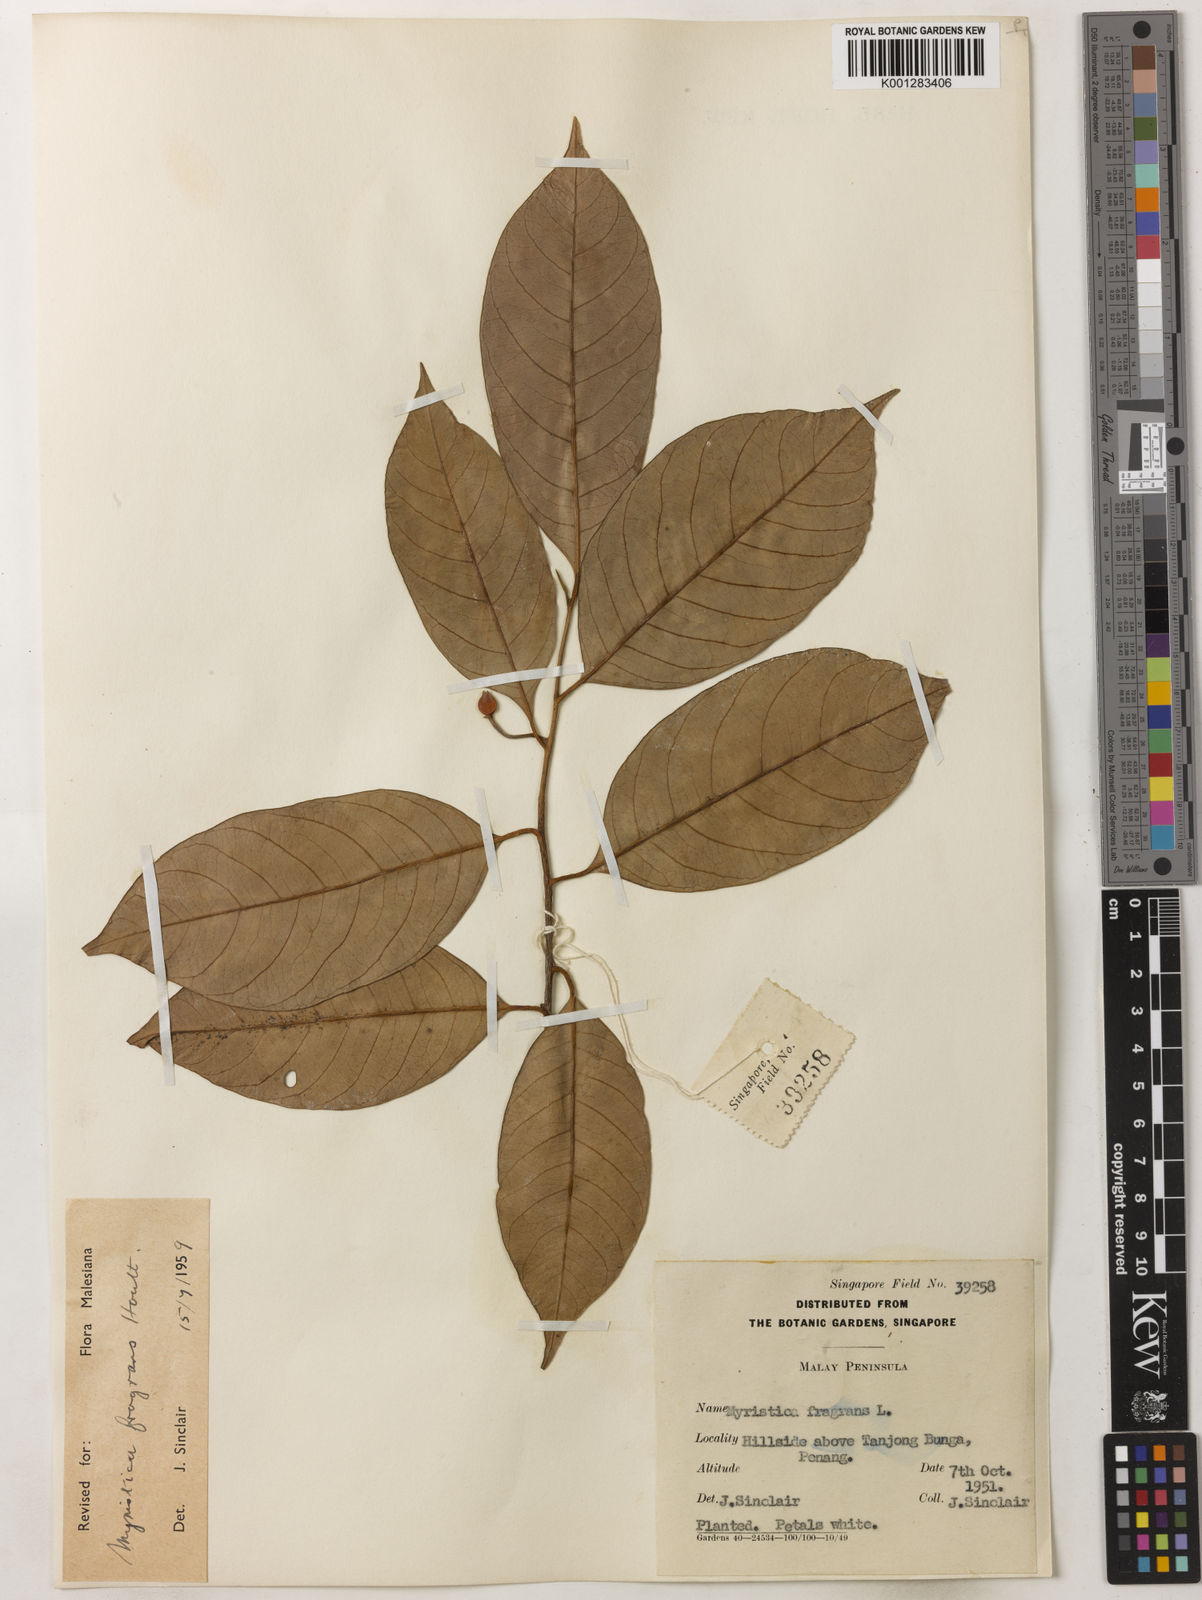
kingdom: Plantae
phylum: Tracheophyta
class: Magnoliopsida
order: Magnoliales
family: Myristicaceae
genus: Myristica
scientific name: Myristica fragrans
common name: Nutmeg
